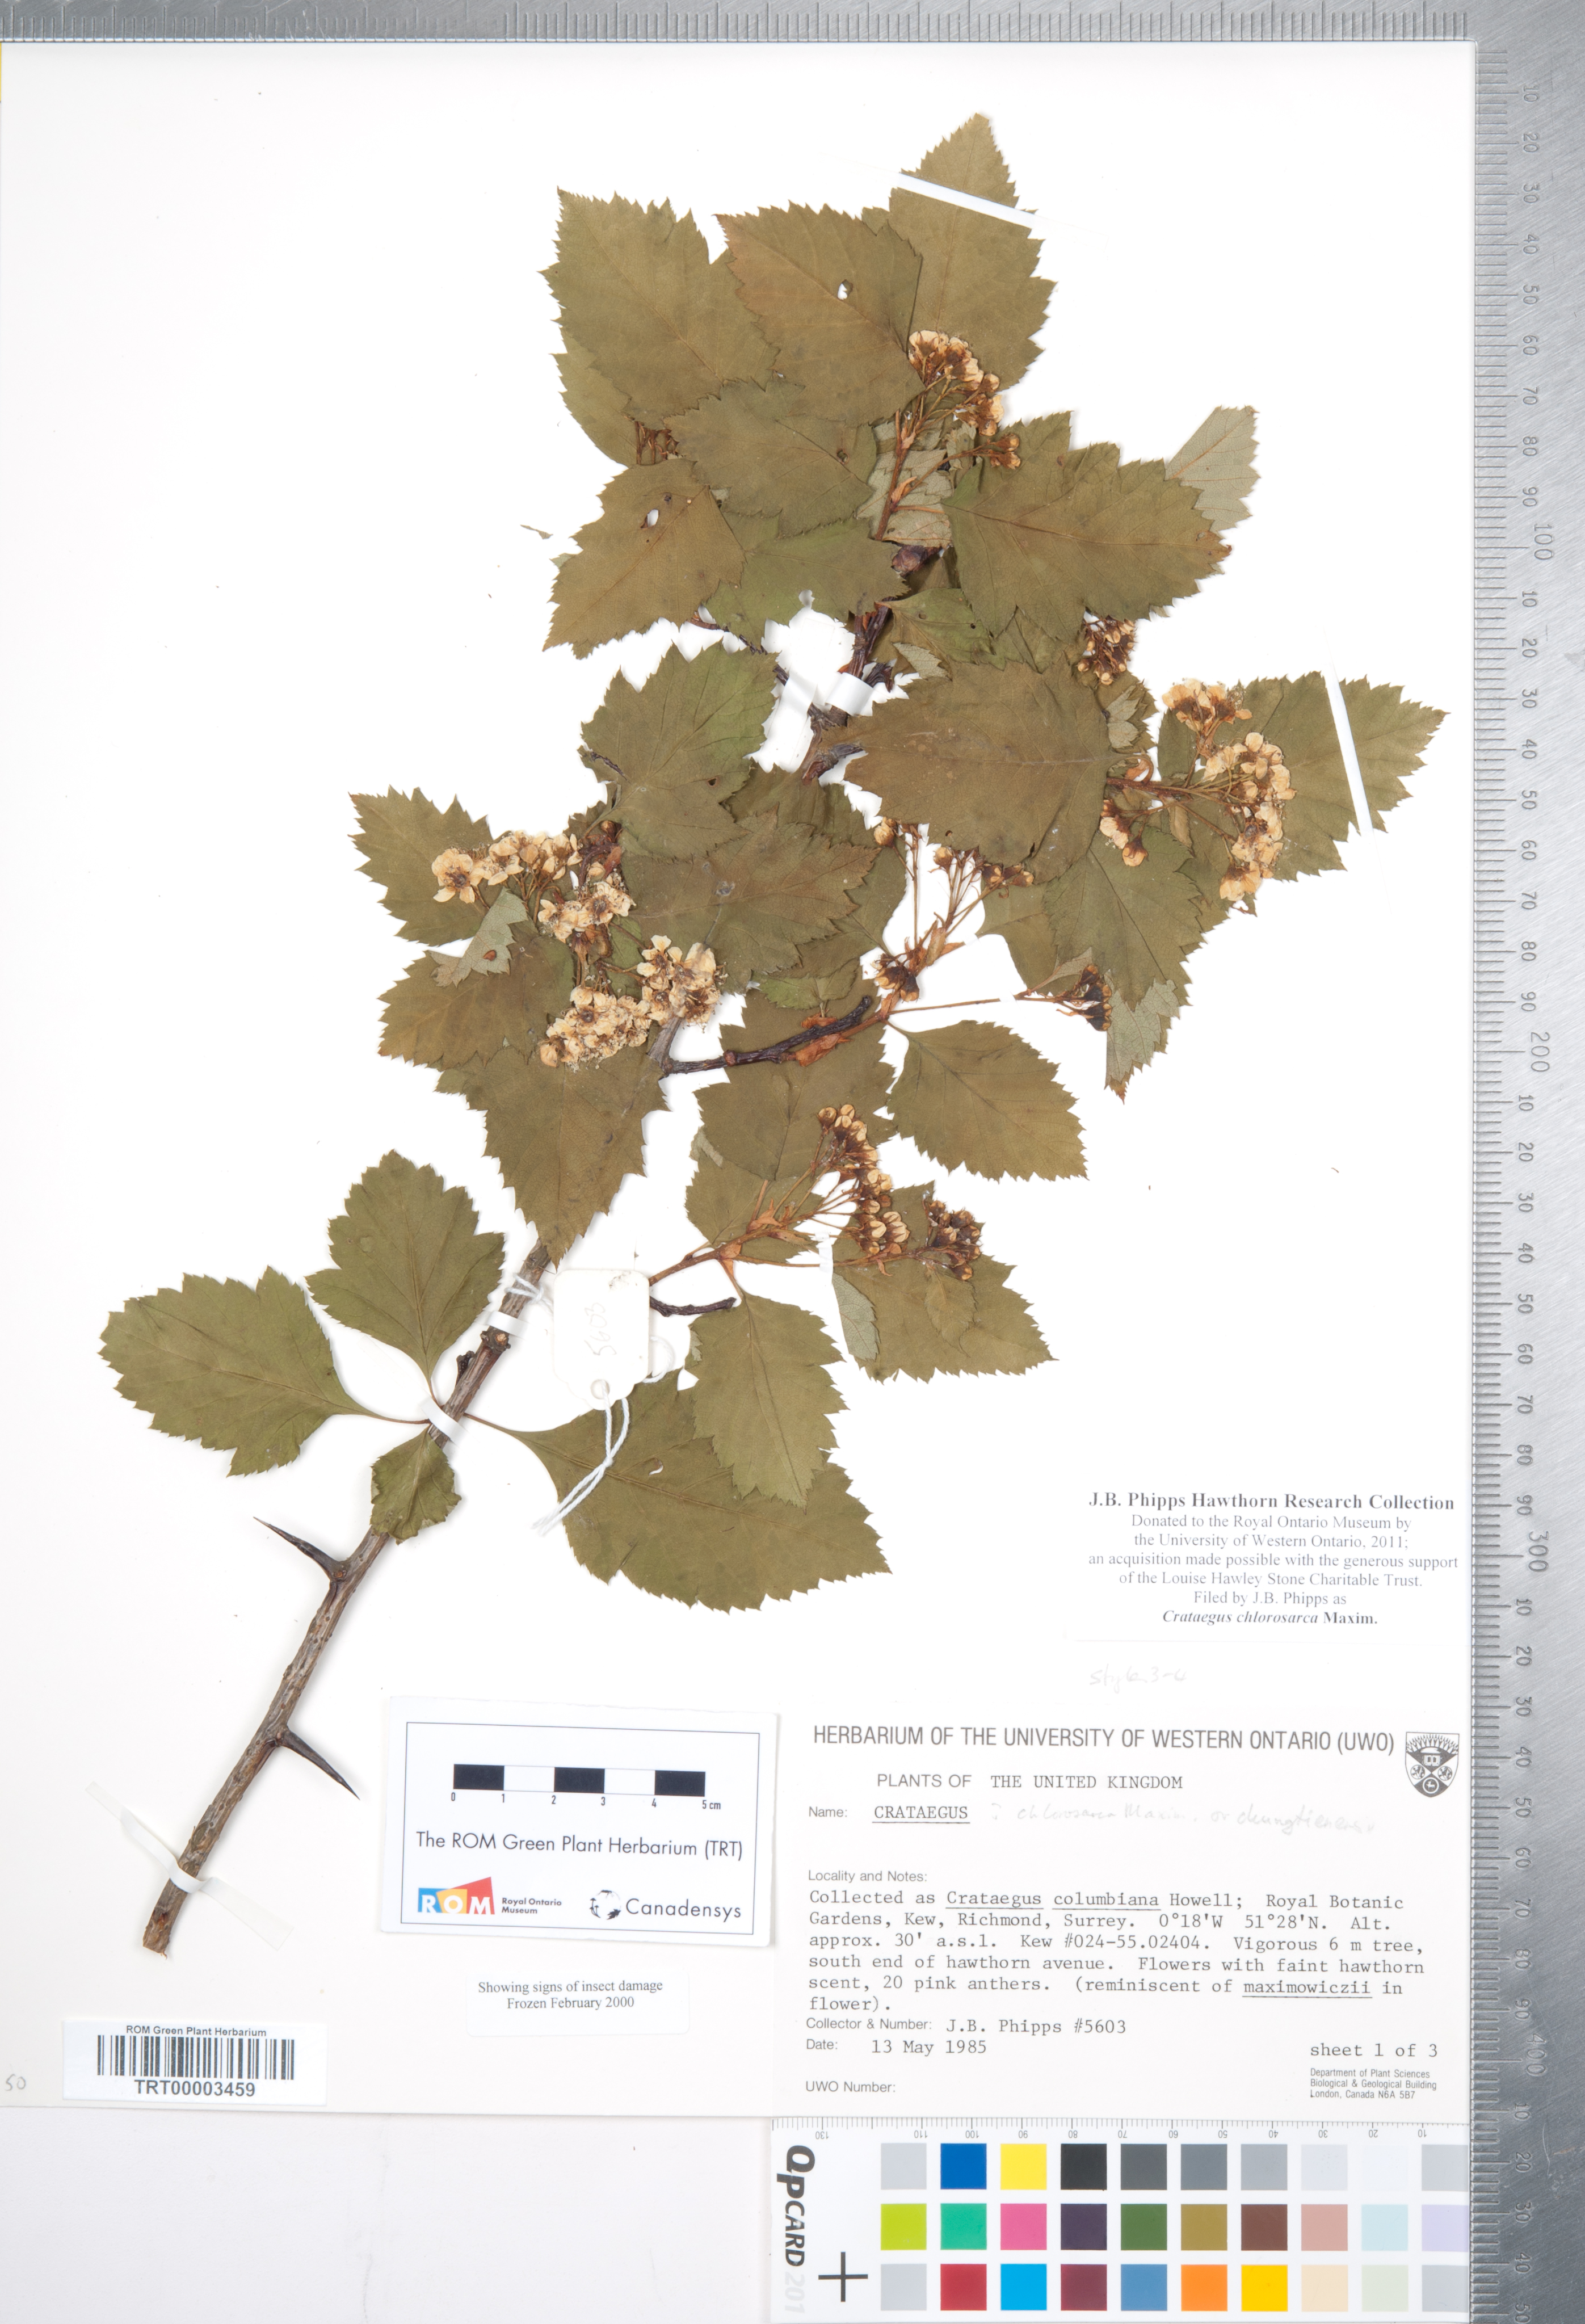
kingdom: Plantae
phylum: Tracheophyta
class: Magnoliopsida
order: Rosales
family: Rosaceae
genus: Crataegus
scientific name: Crataegus chlorosarca
